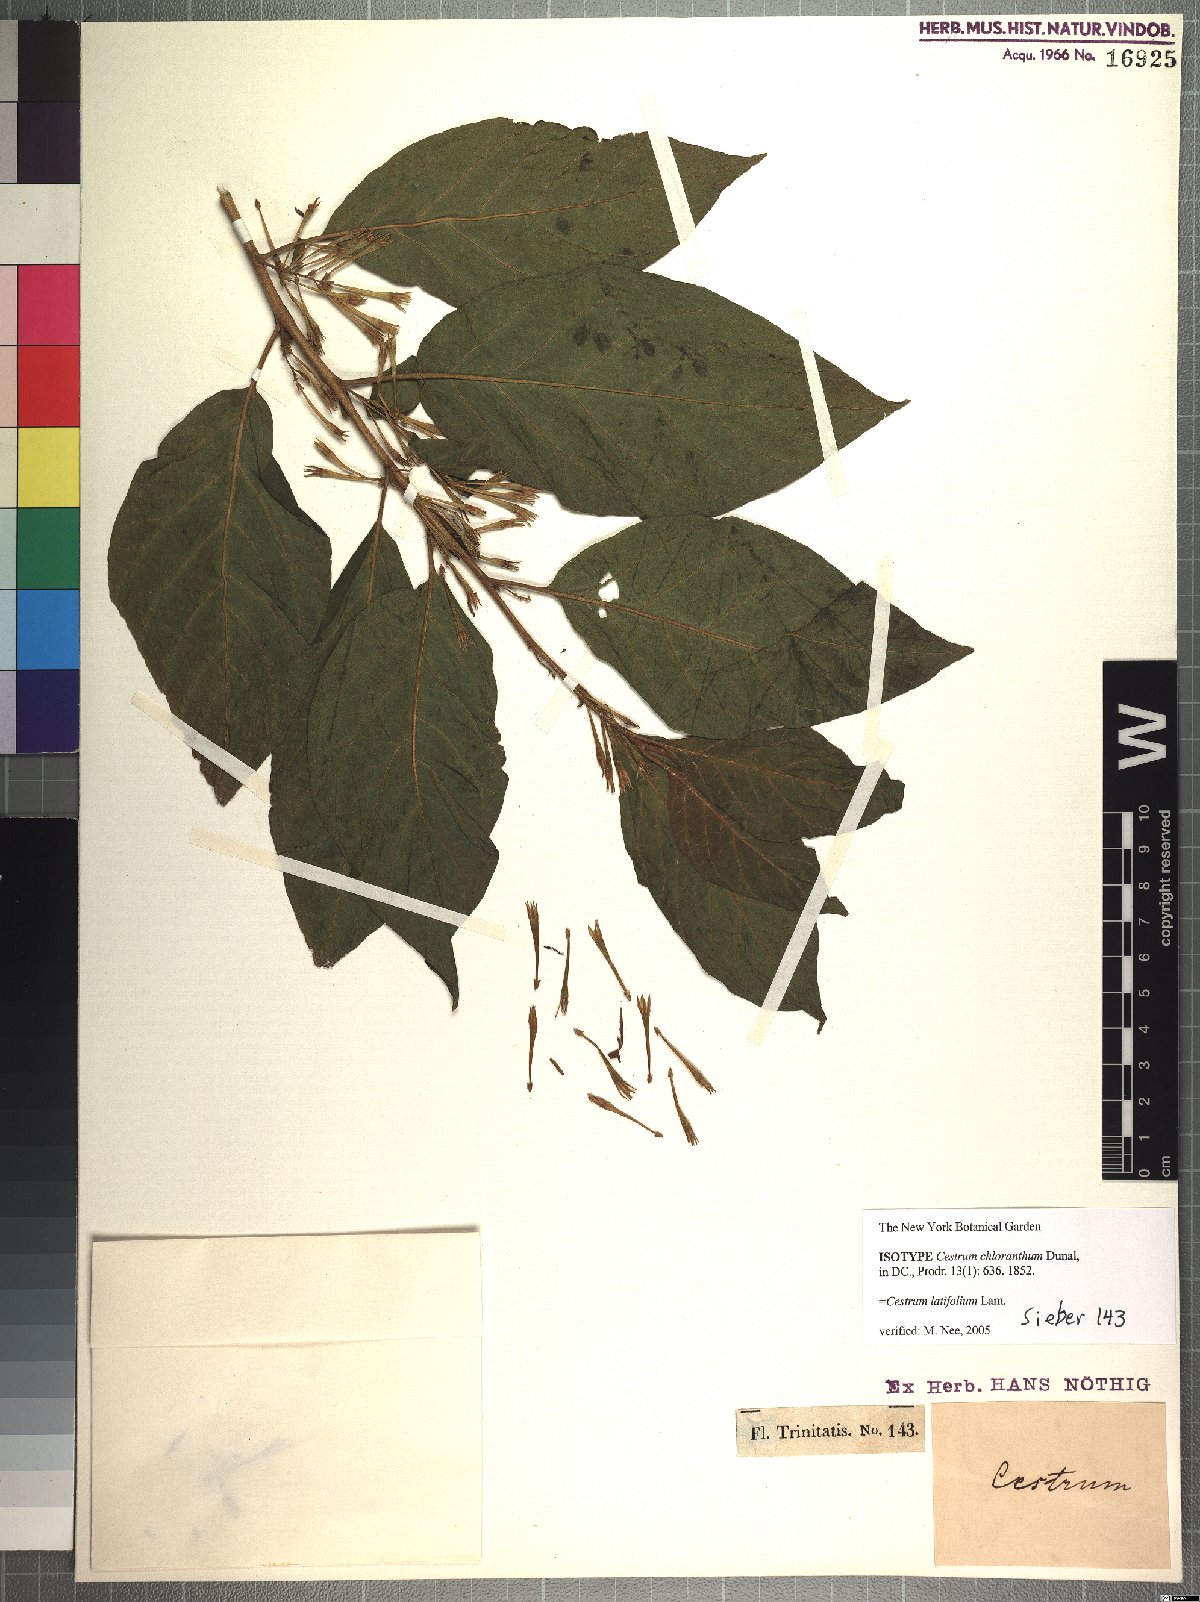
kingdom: Plantae
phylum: Tracheophyta
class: Magnoliopsida
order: Solanales
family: Solanaceae
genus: Cestrum
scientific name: Cestrum latifolium
